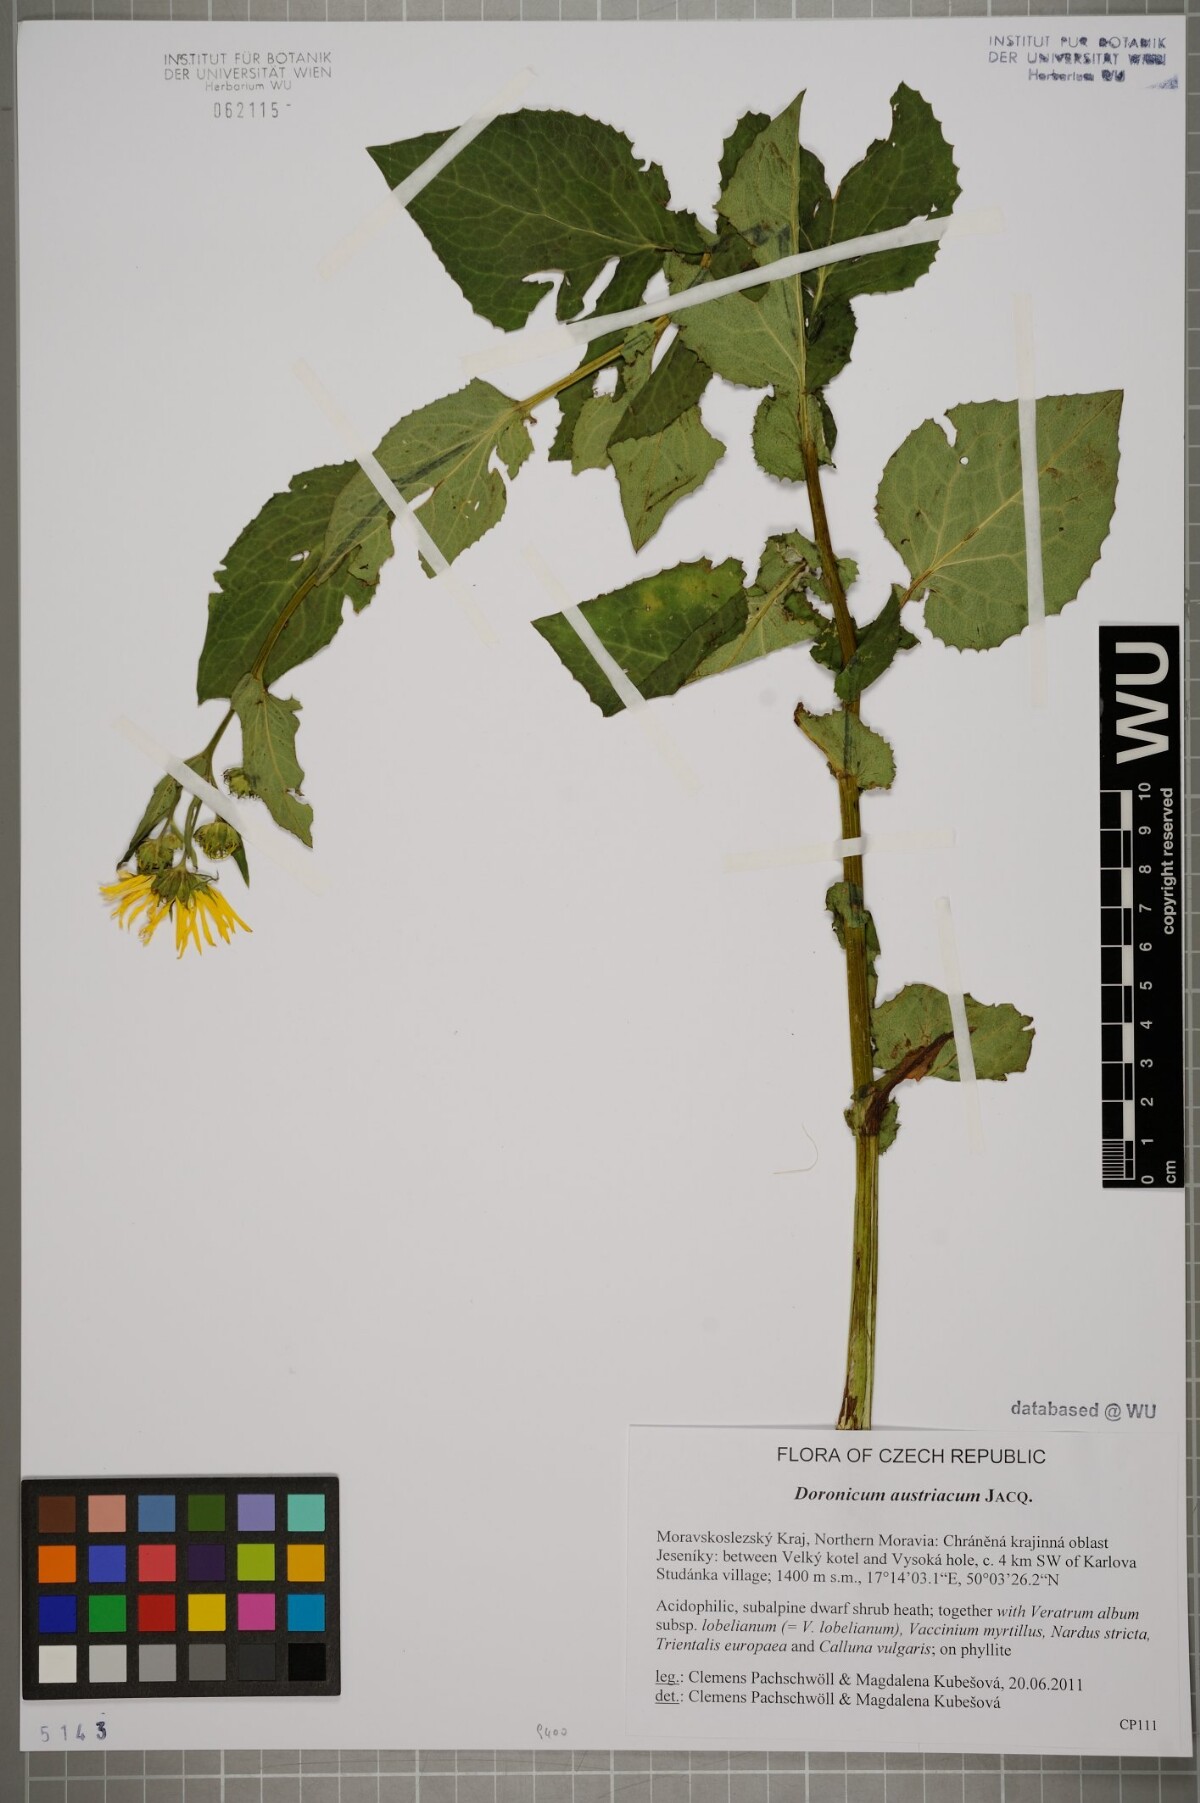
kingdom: Plantae
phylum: Tracheophyta
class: Magnoliopsida
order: Asterales
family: Asteraceae
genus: Doronicum
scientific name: Doronicum austriacum
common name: Austrian leopard's-bane
